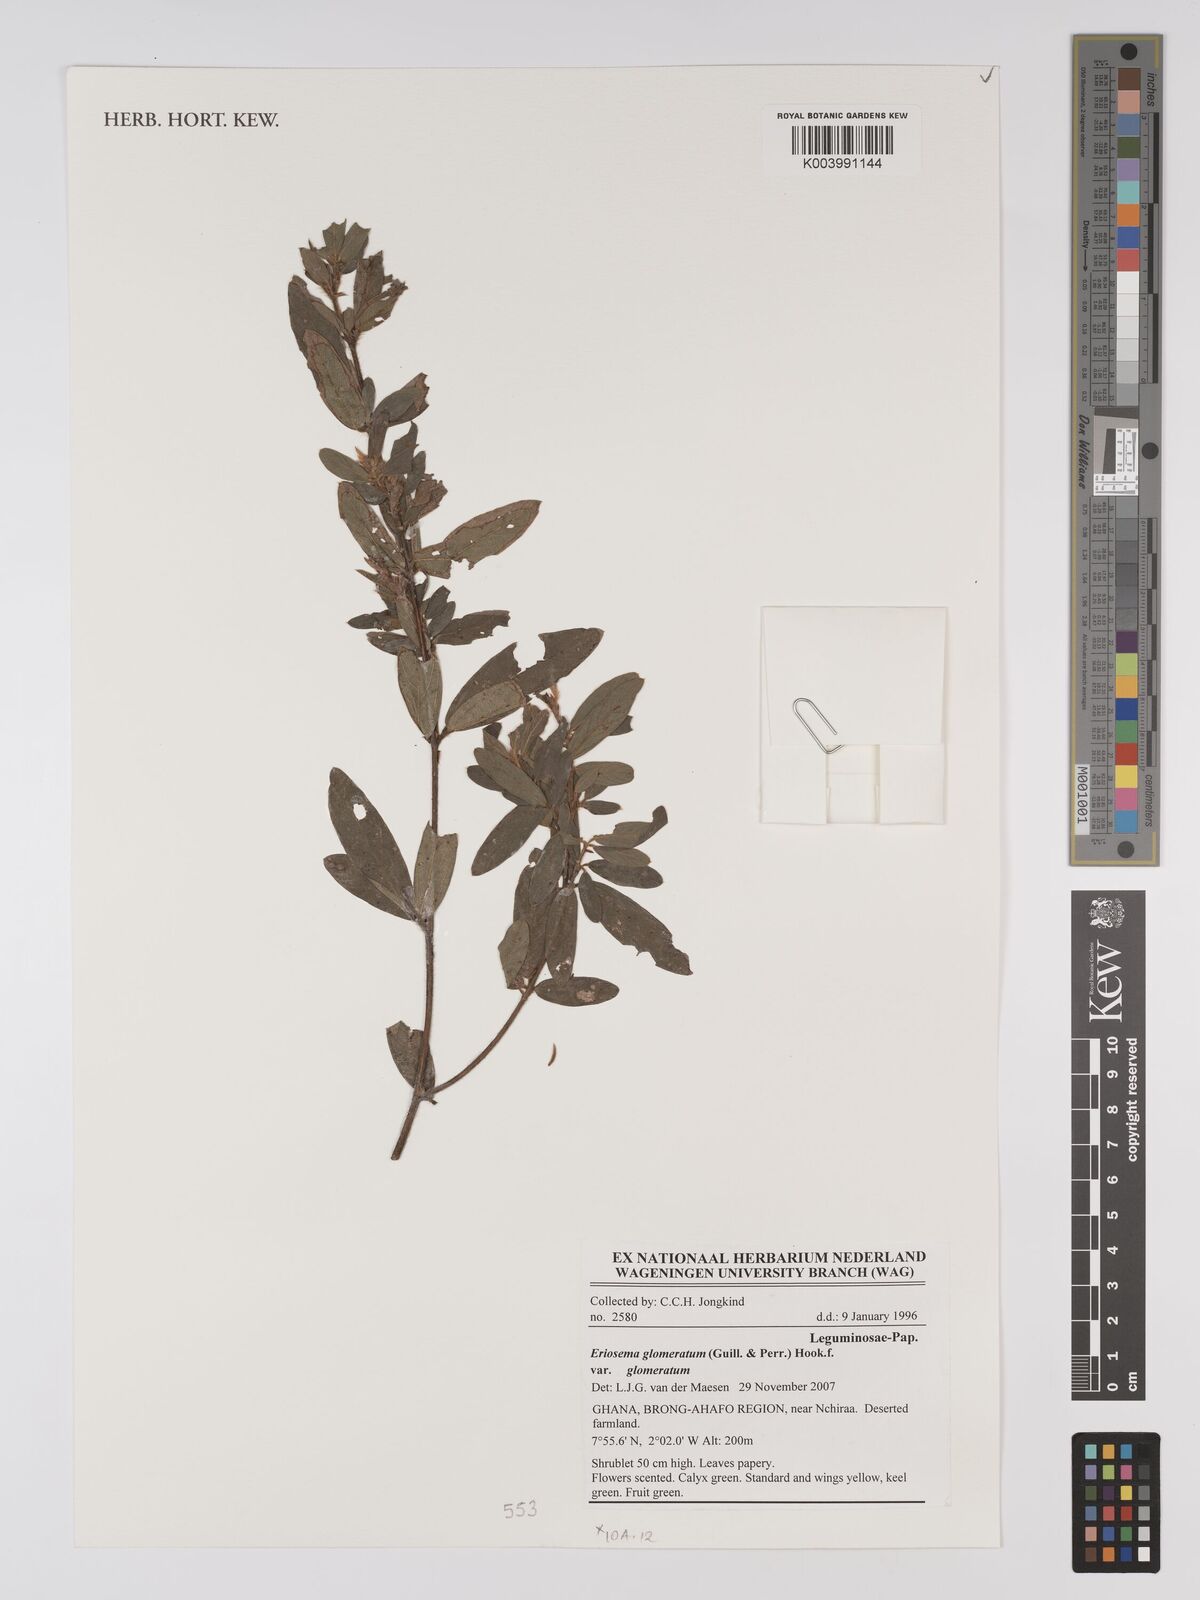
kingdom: Plantae
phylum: Tracheophyta
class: Magnoliopsida
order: Fabales
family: Fabaceae
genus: Eriosema
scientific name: Eriosema glomeratum
